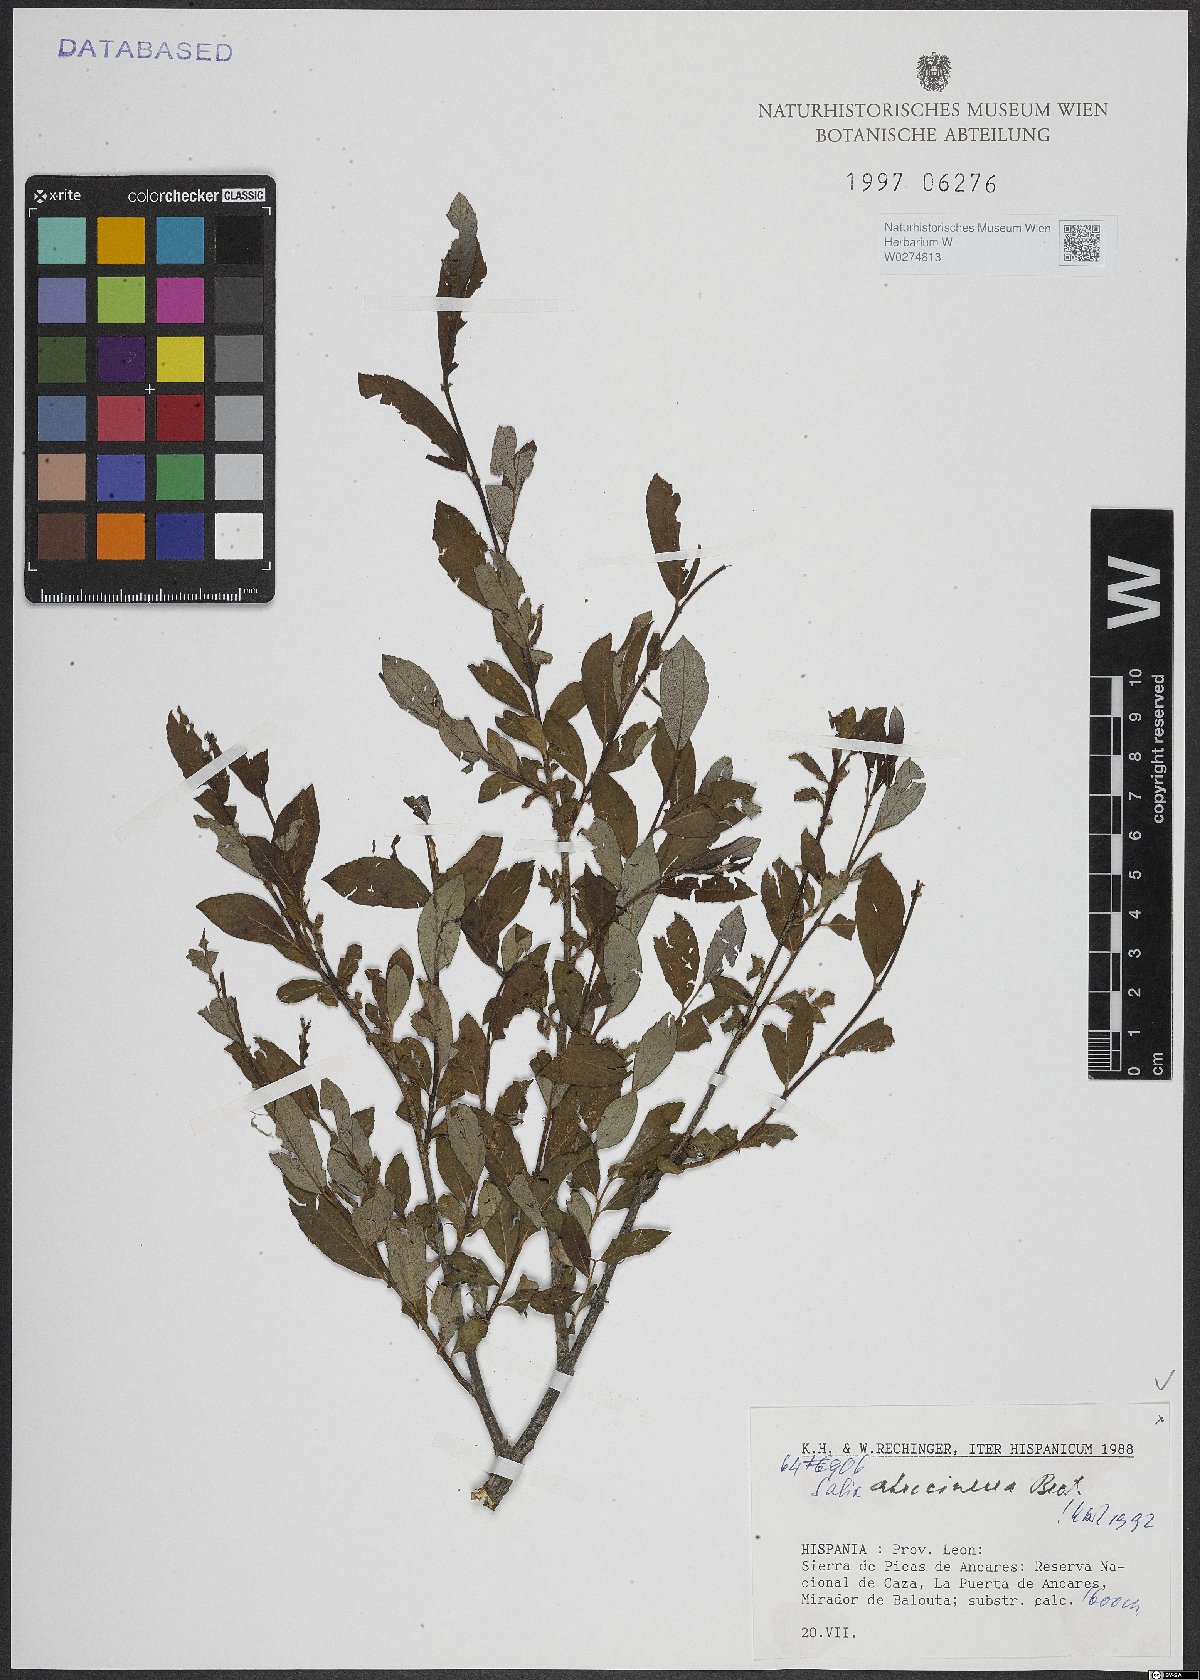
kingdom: Plantae
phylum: Tracheophyta
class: Magnoliopsida
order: Malpighiales
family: Salicaceae
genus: Salix
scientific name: Salix atrocinerea
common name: Rusty willow
